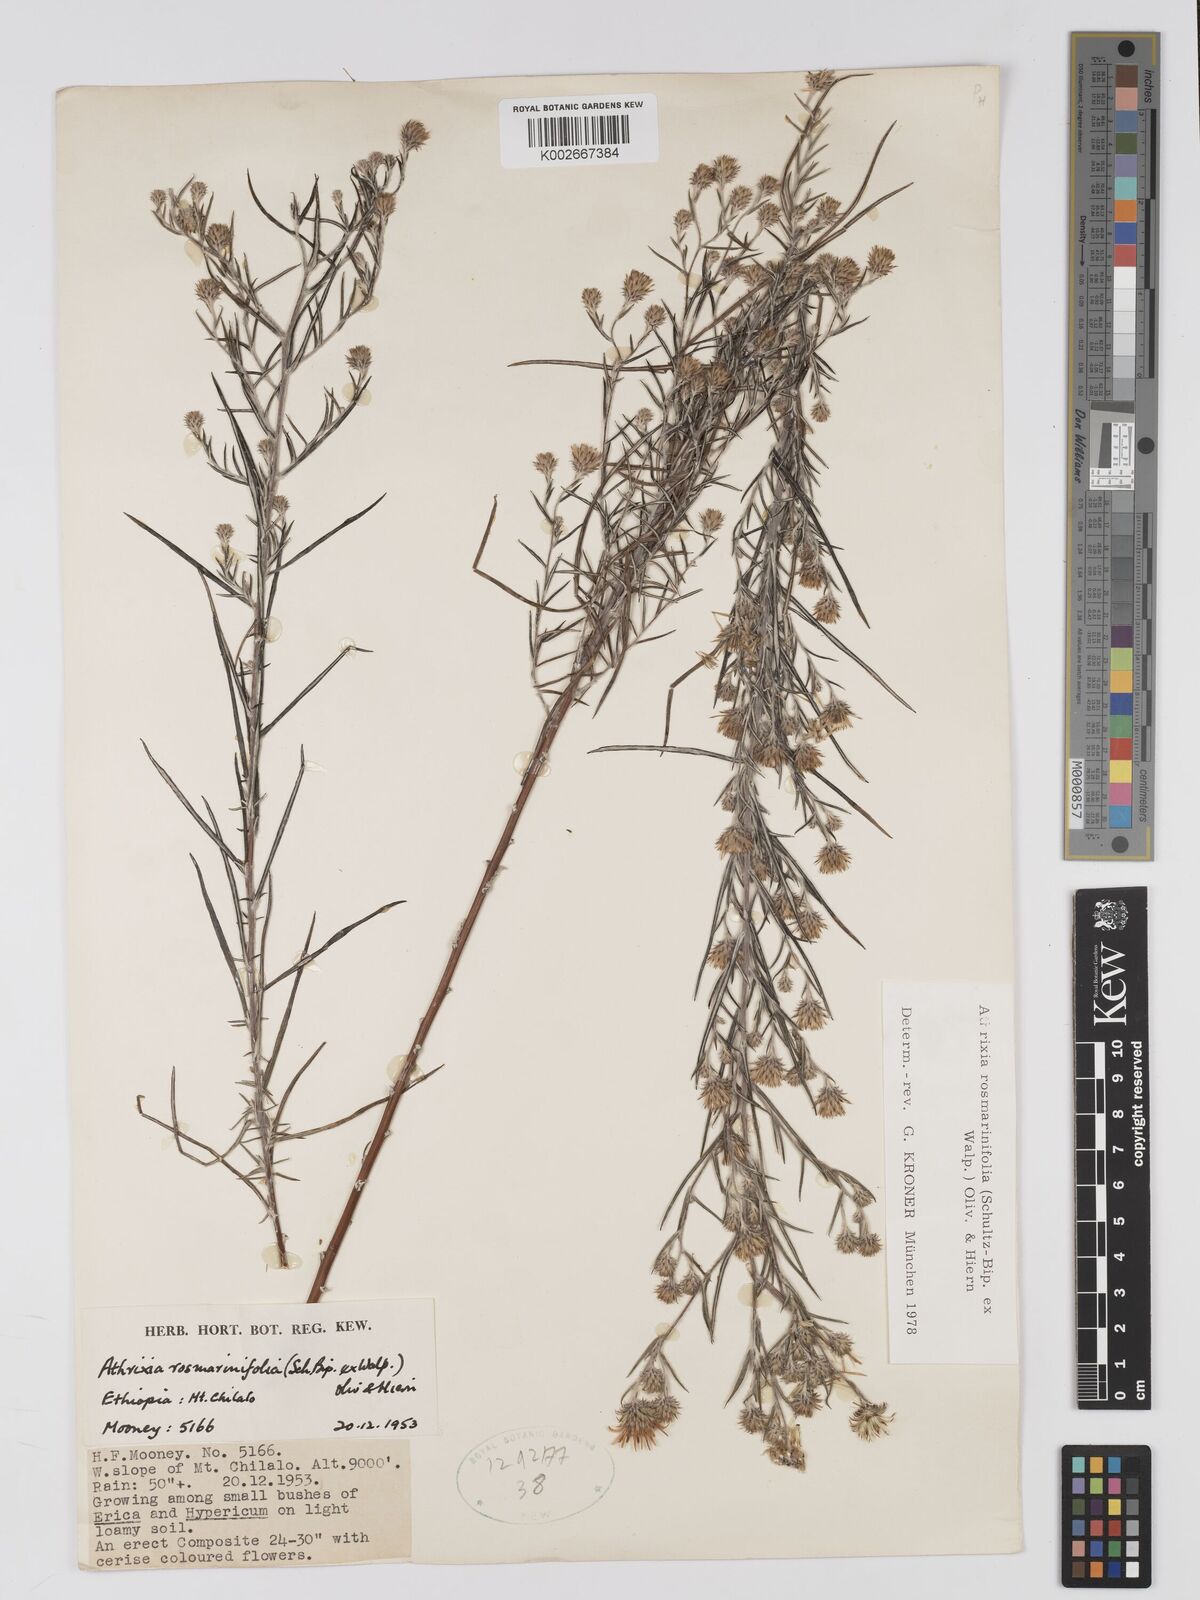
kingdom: Plantae
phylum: Tracheophyta
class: Magnoliopsida
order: Asterales
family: Asteraceae
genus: Athrixia
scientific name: Athrixia rosmarinifolia
